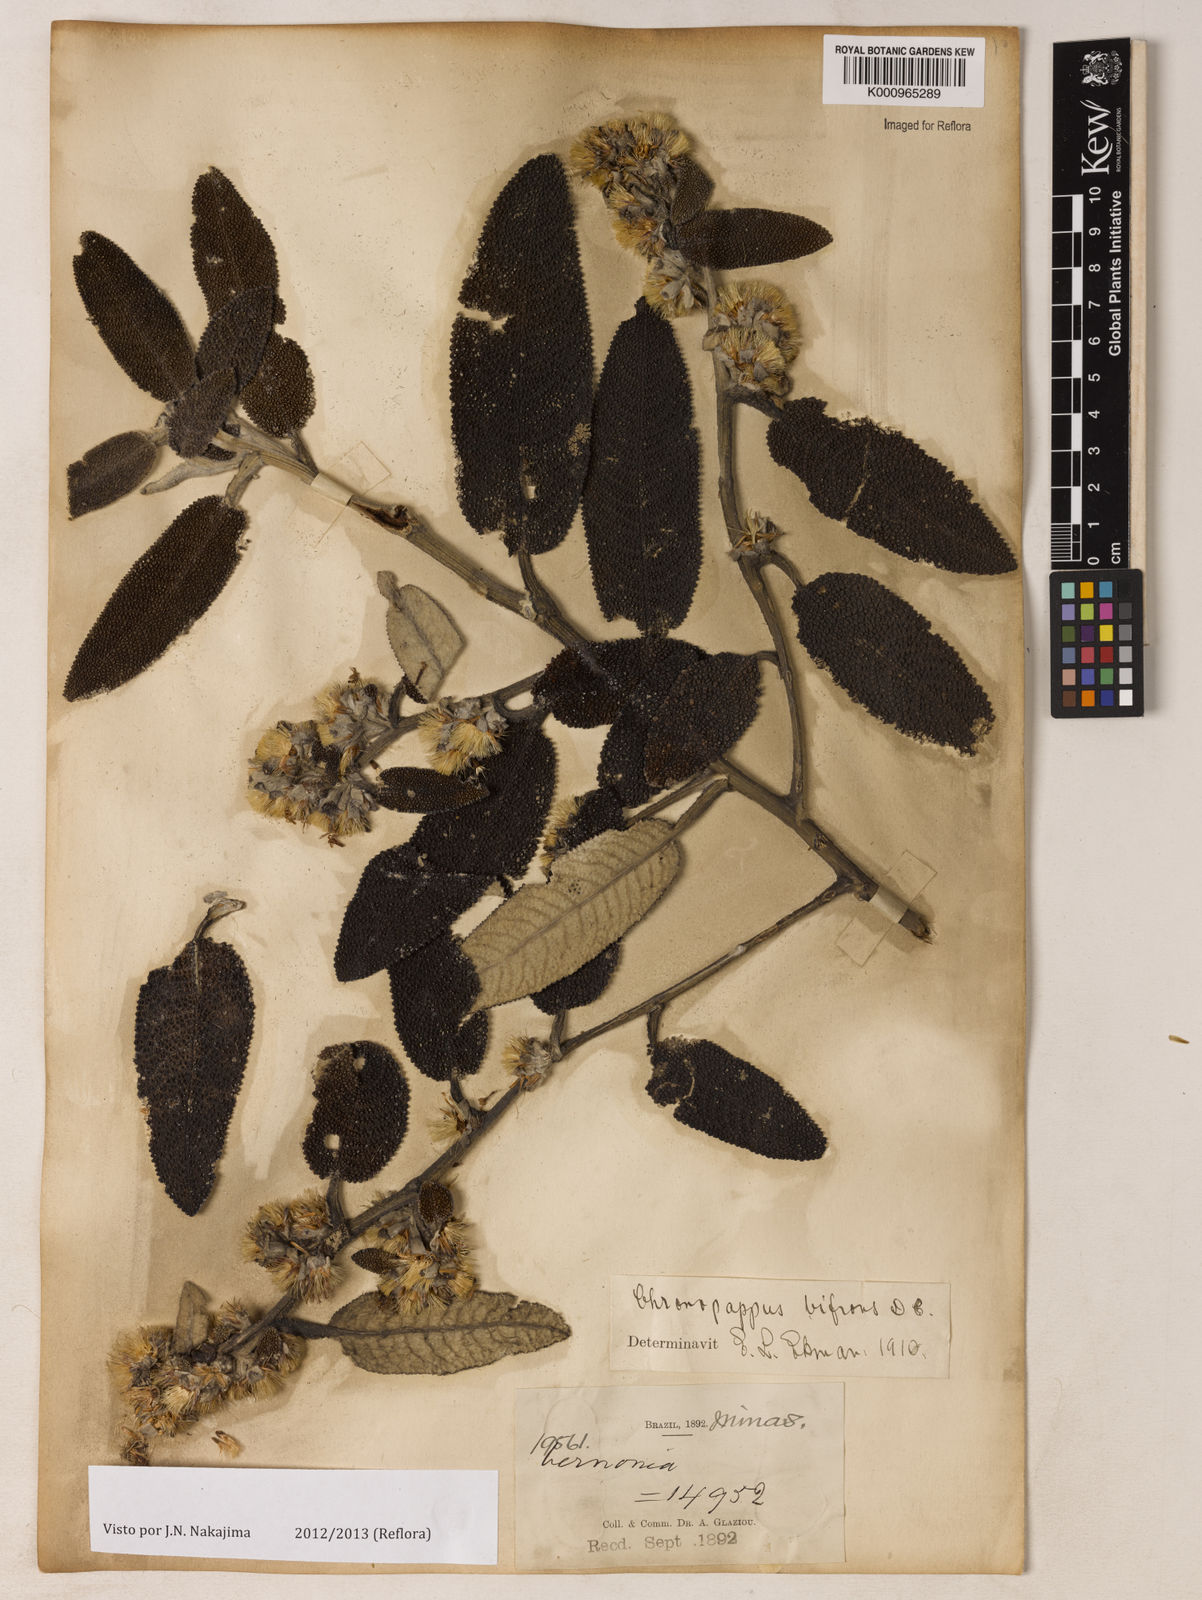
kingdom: Plantae
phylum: Tracheophyta
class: Magnoliopsida
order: Asterales
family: Asteraceae
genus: Chronopappus
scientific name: Chronopappus bifrons
